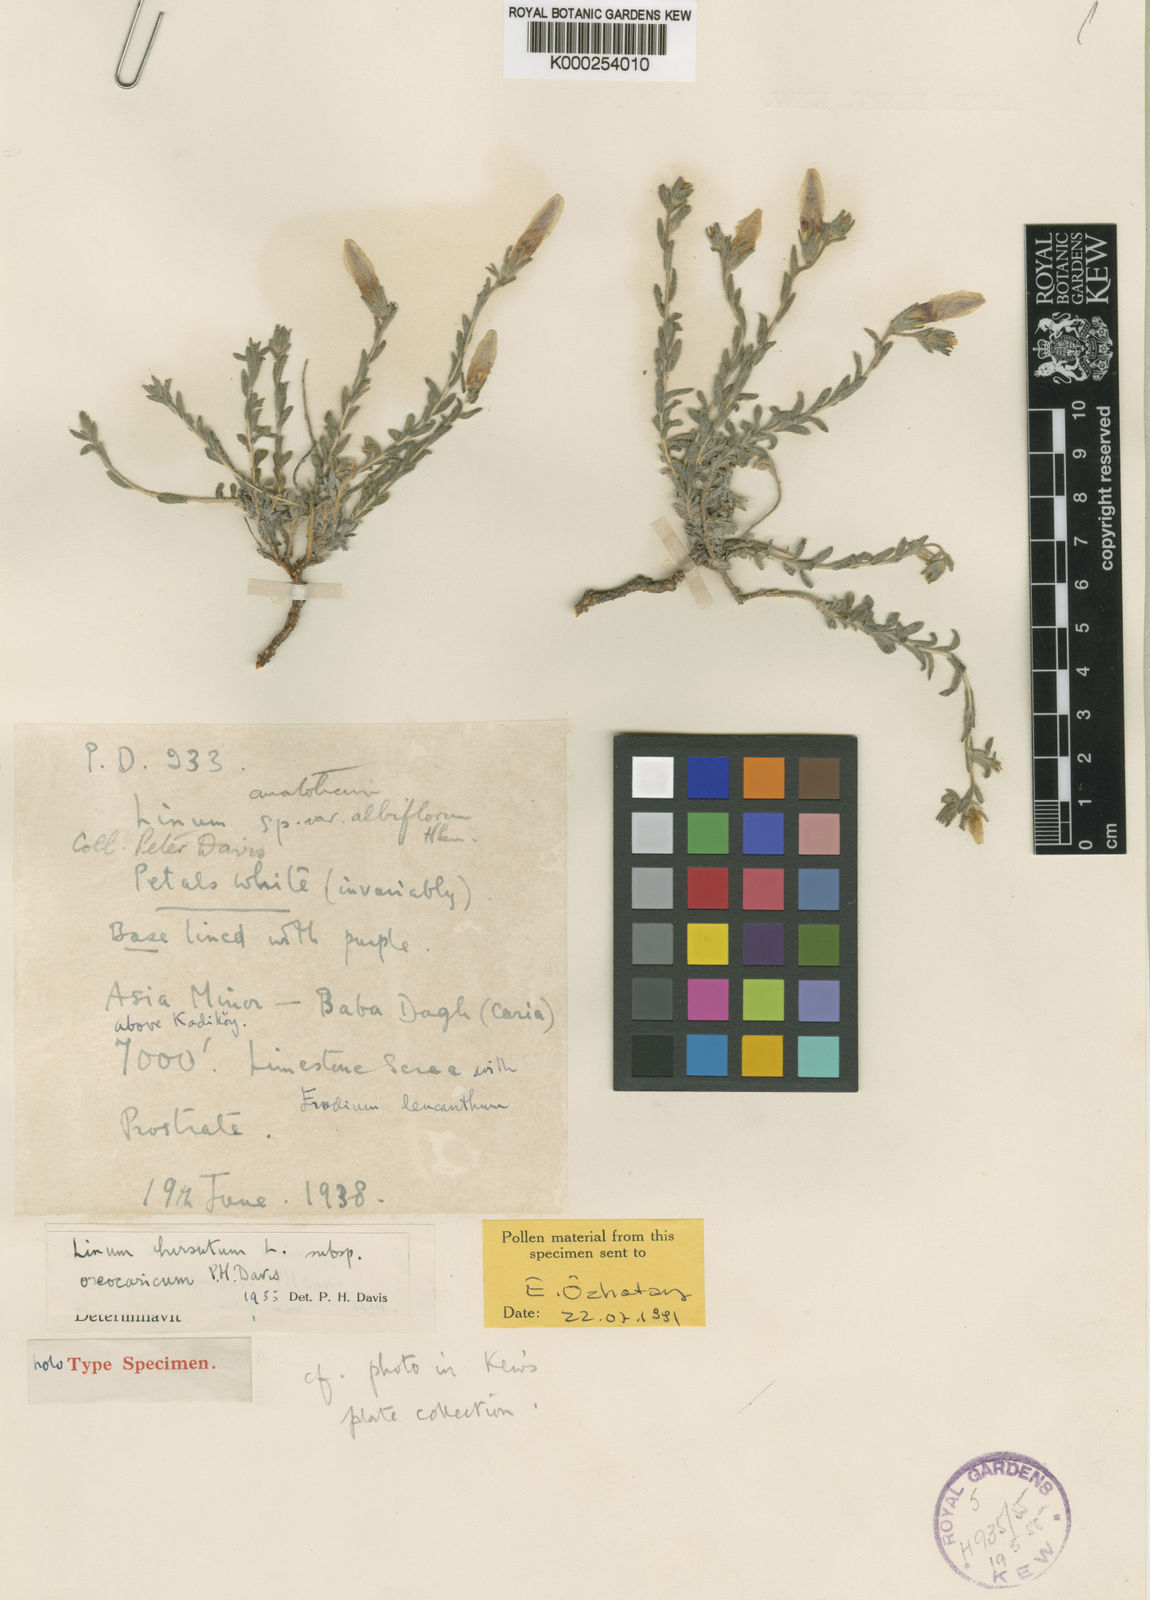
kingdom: Plantae
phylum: Tracheophyta
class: Magnoliopsida
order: Malpighiales
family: Linaceae
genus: Linum
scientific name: Linum hirsutum
